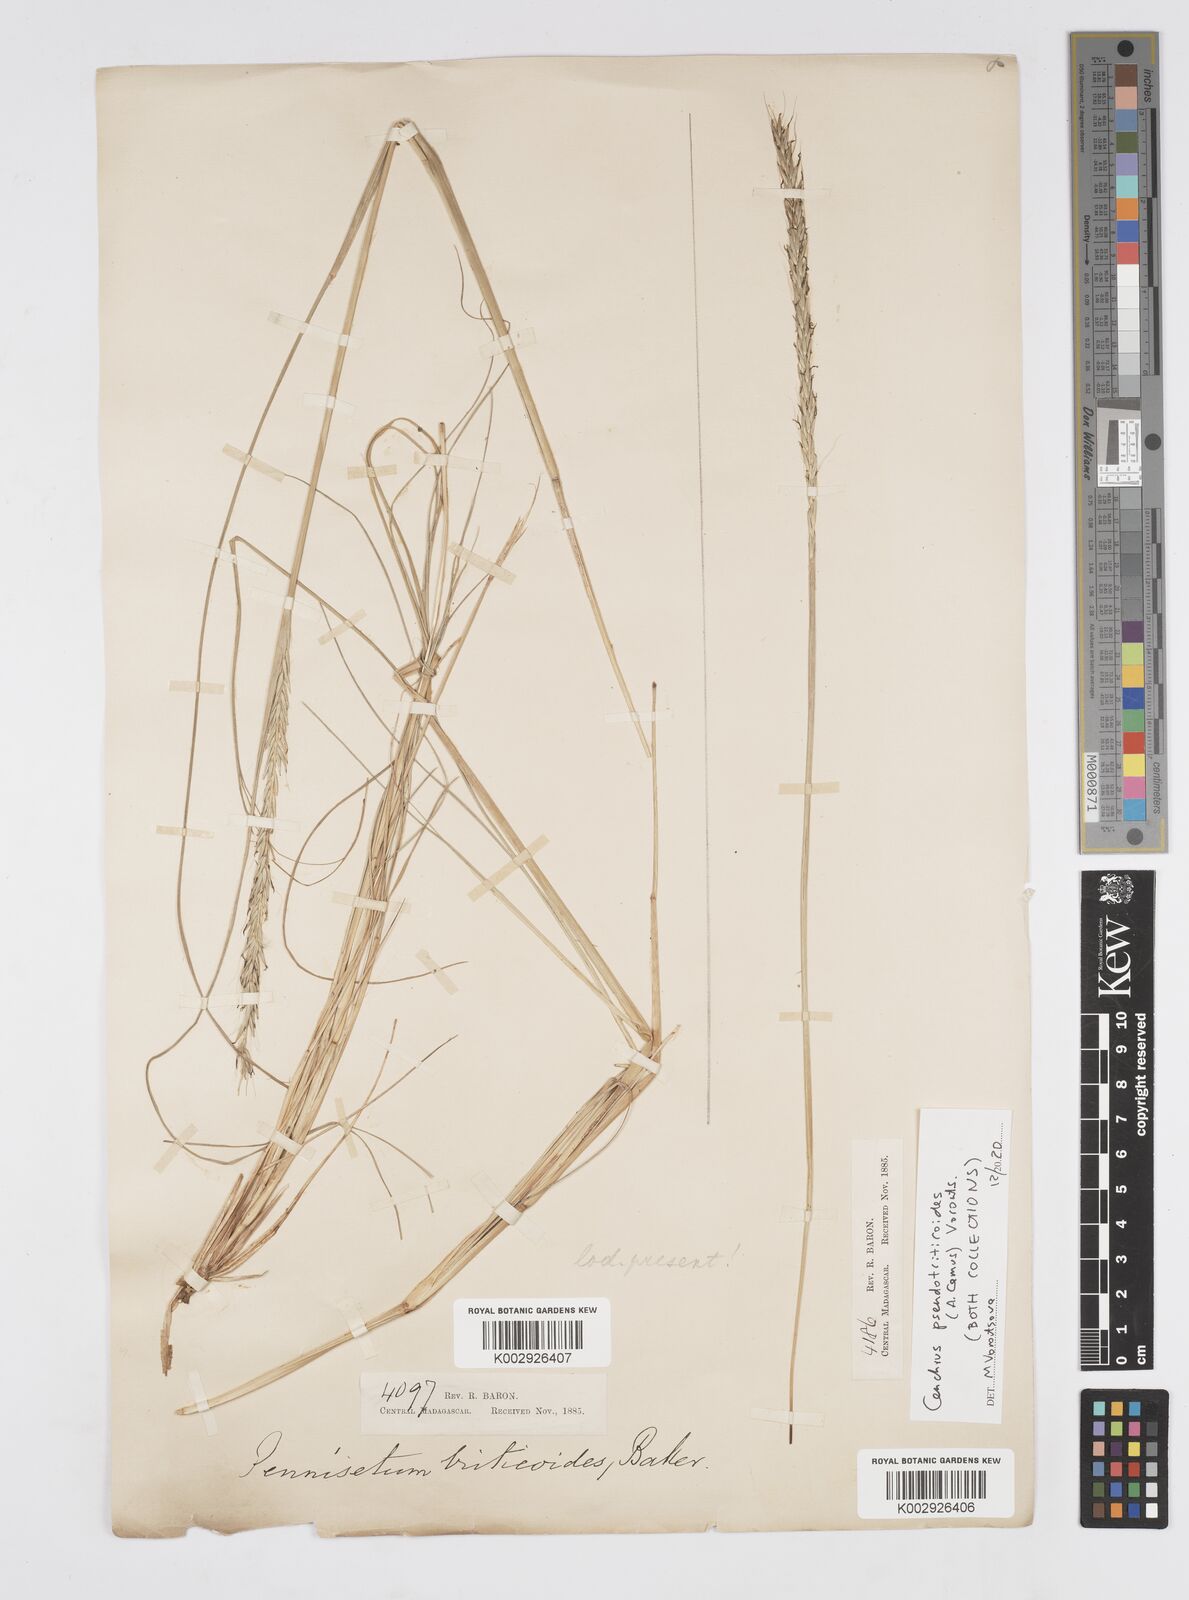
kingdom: Plantae
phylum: Tracheophyta
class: Liliopsida
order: Poales
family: Poaceae
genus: Cenchrus
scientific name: Cenchrus pseudotriticoides
